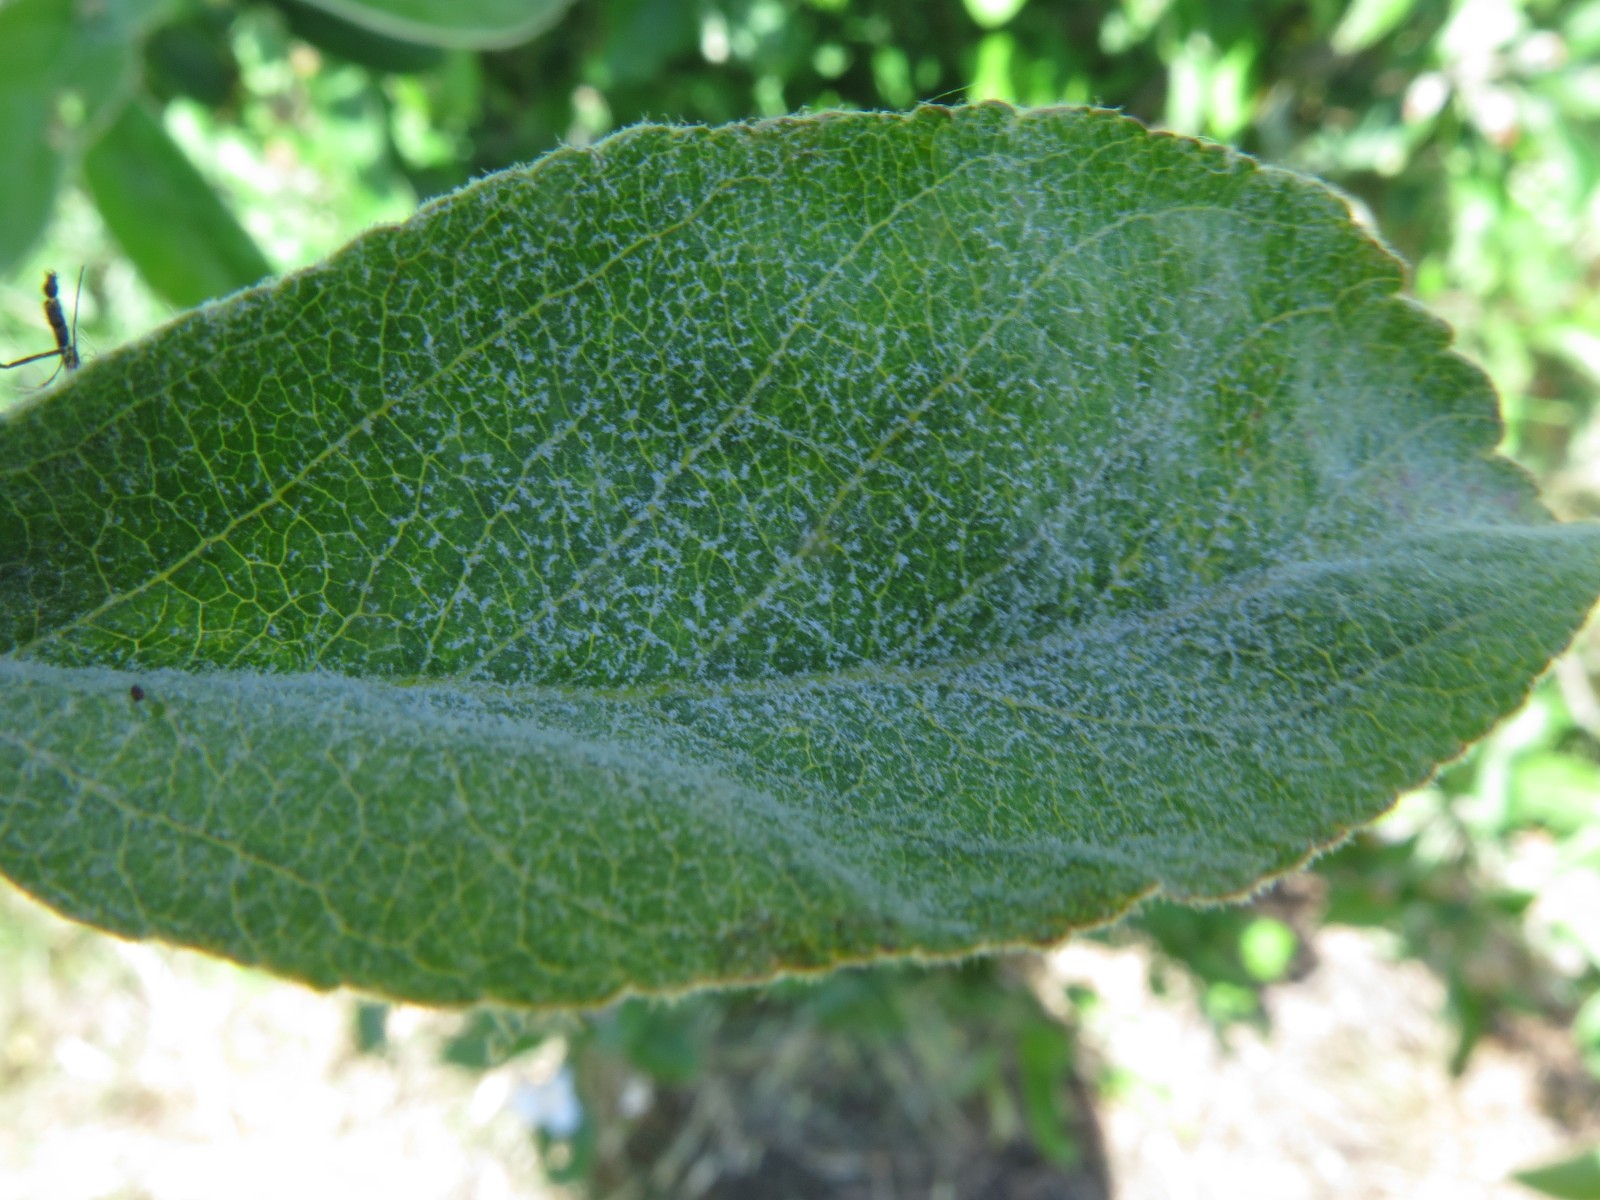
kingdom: Fungi
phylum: Ascomycota
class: Leotiomycetes
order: Helotiales
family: Erysiphaceae
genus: Podosphaera
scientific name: Podosphaera leucotricha
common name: æble-meldug
